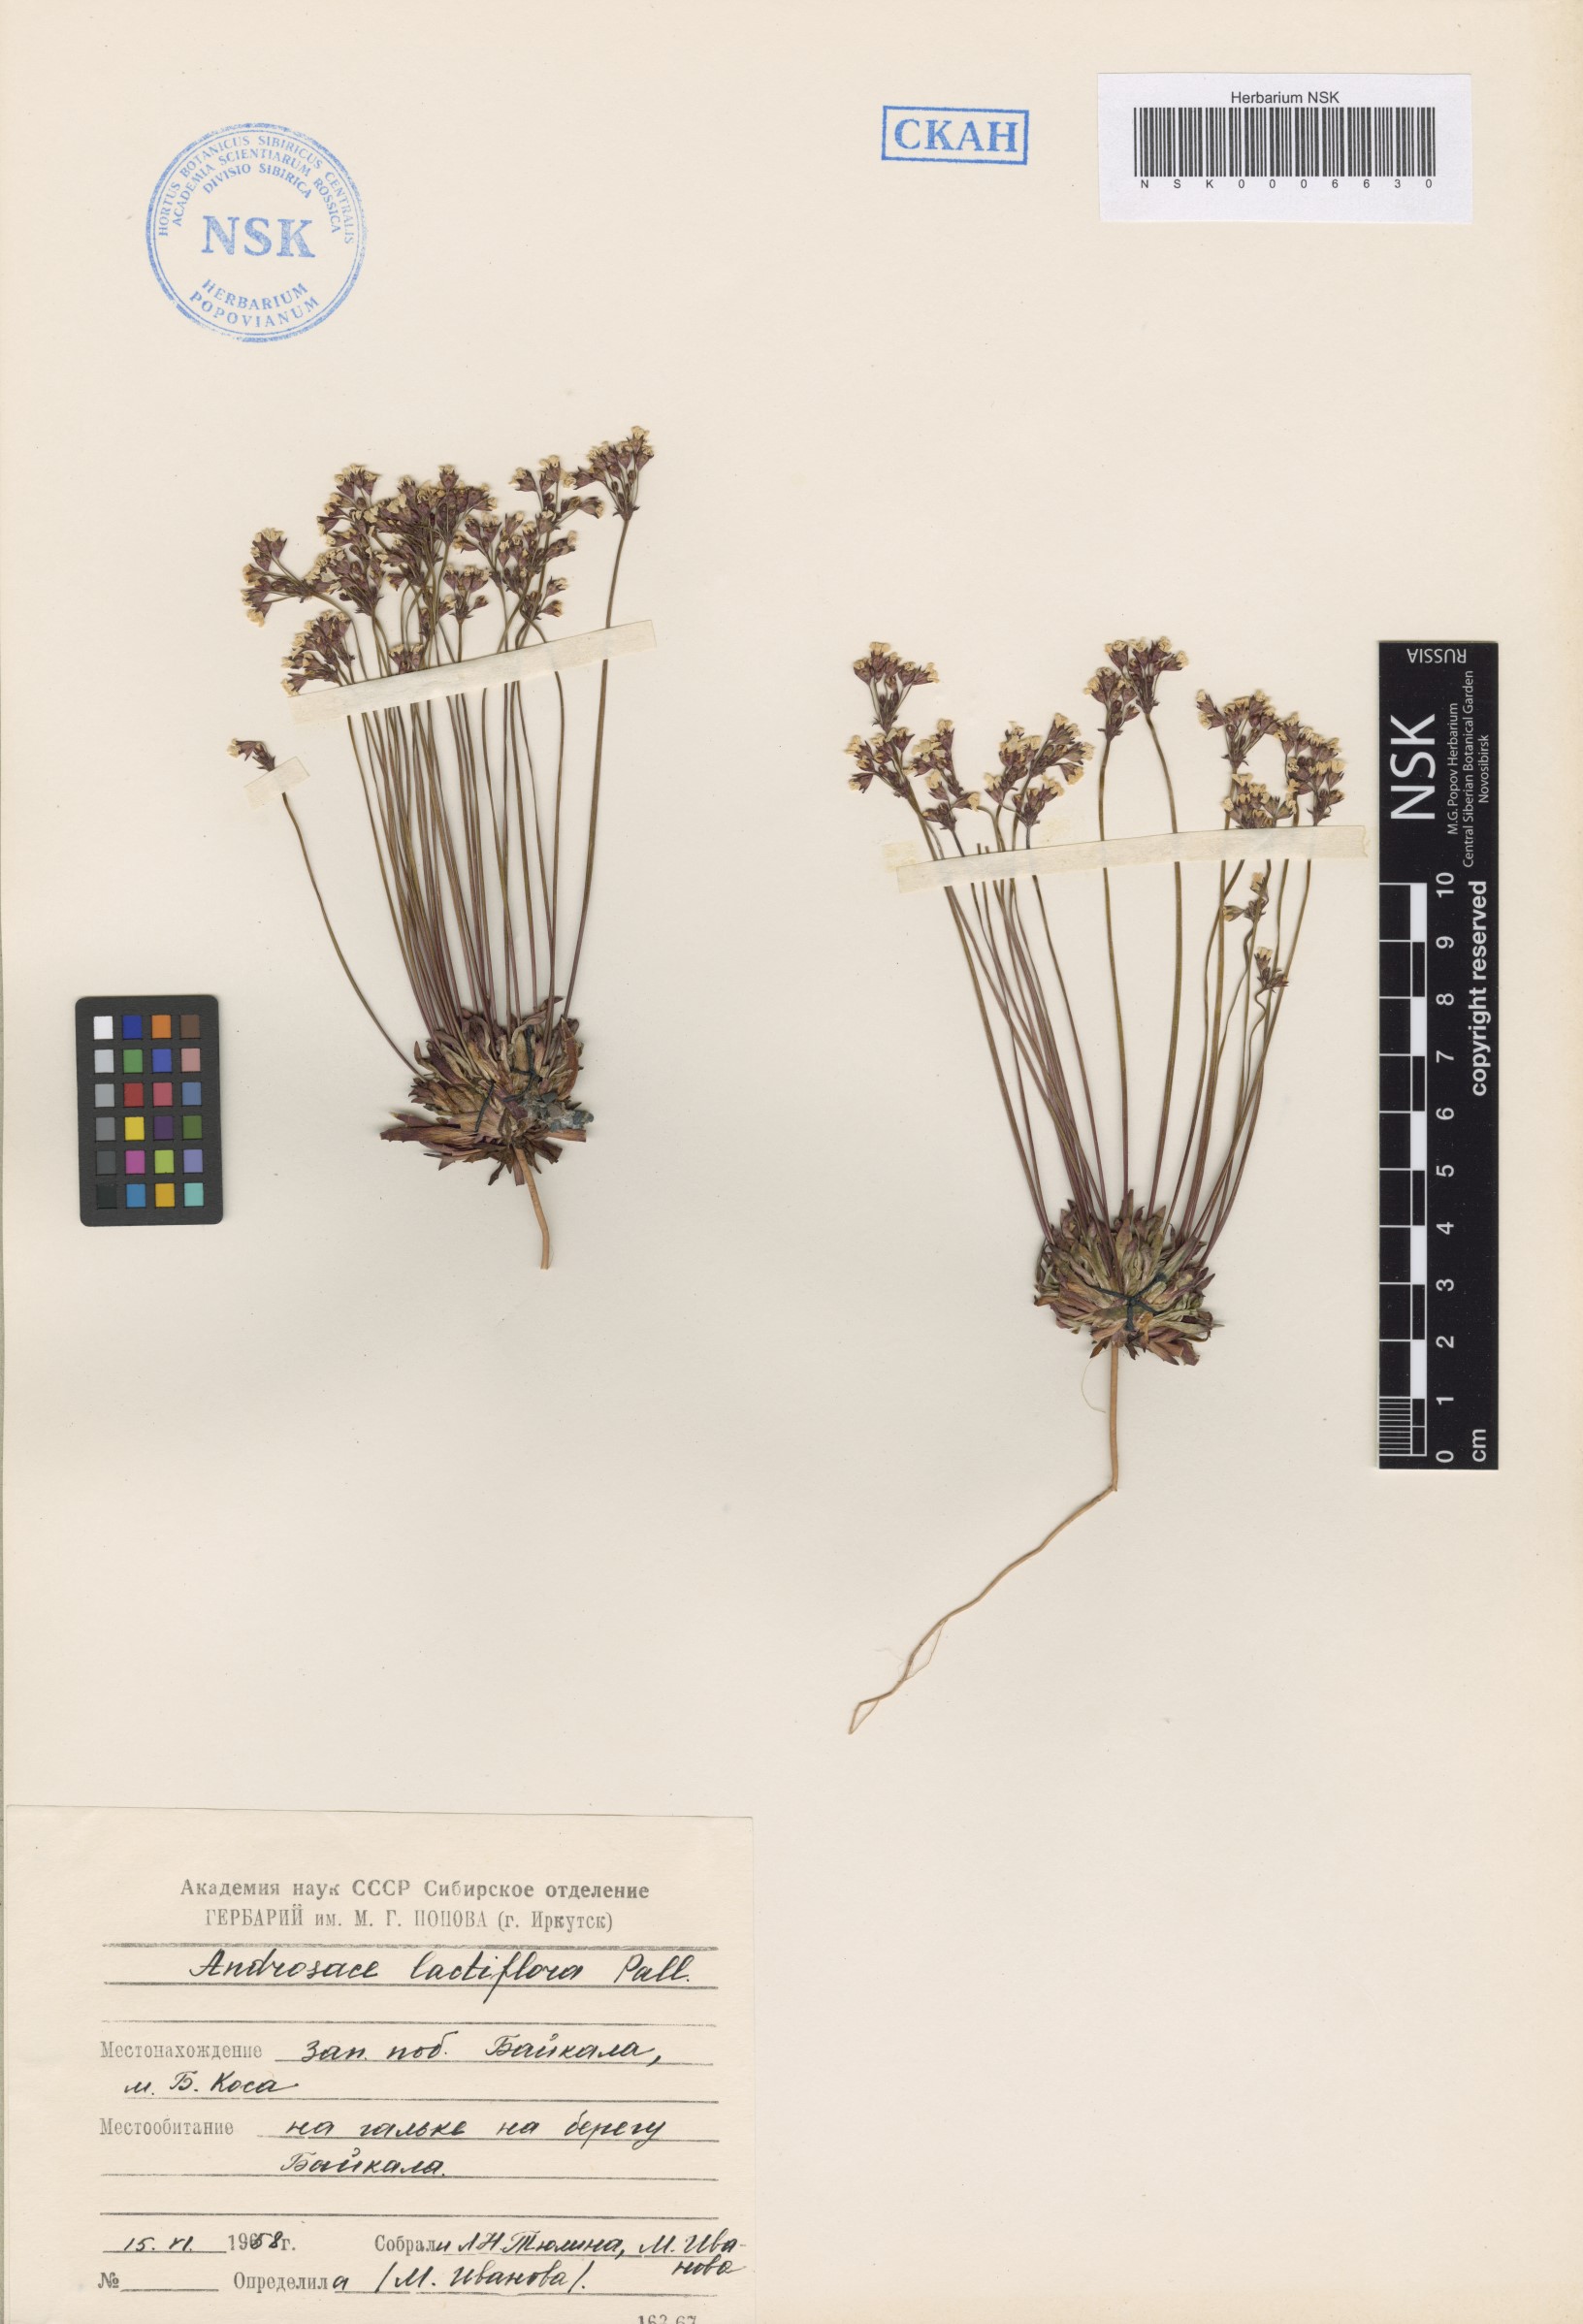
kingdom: Plantae
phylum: Tracheophyta
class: Magnoliopsida
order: Ericales
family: Primulaceae
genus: Androsace
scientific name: Androsace lactiflora
